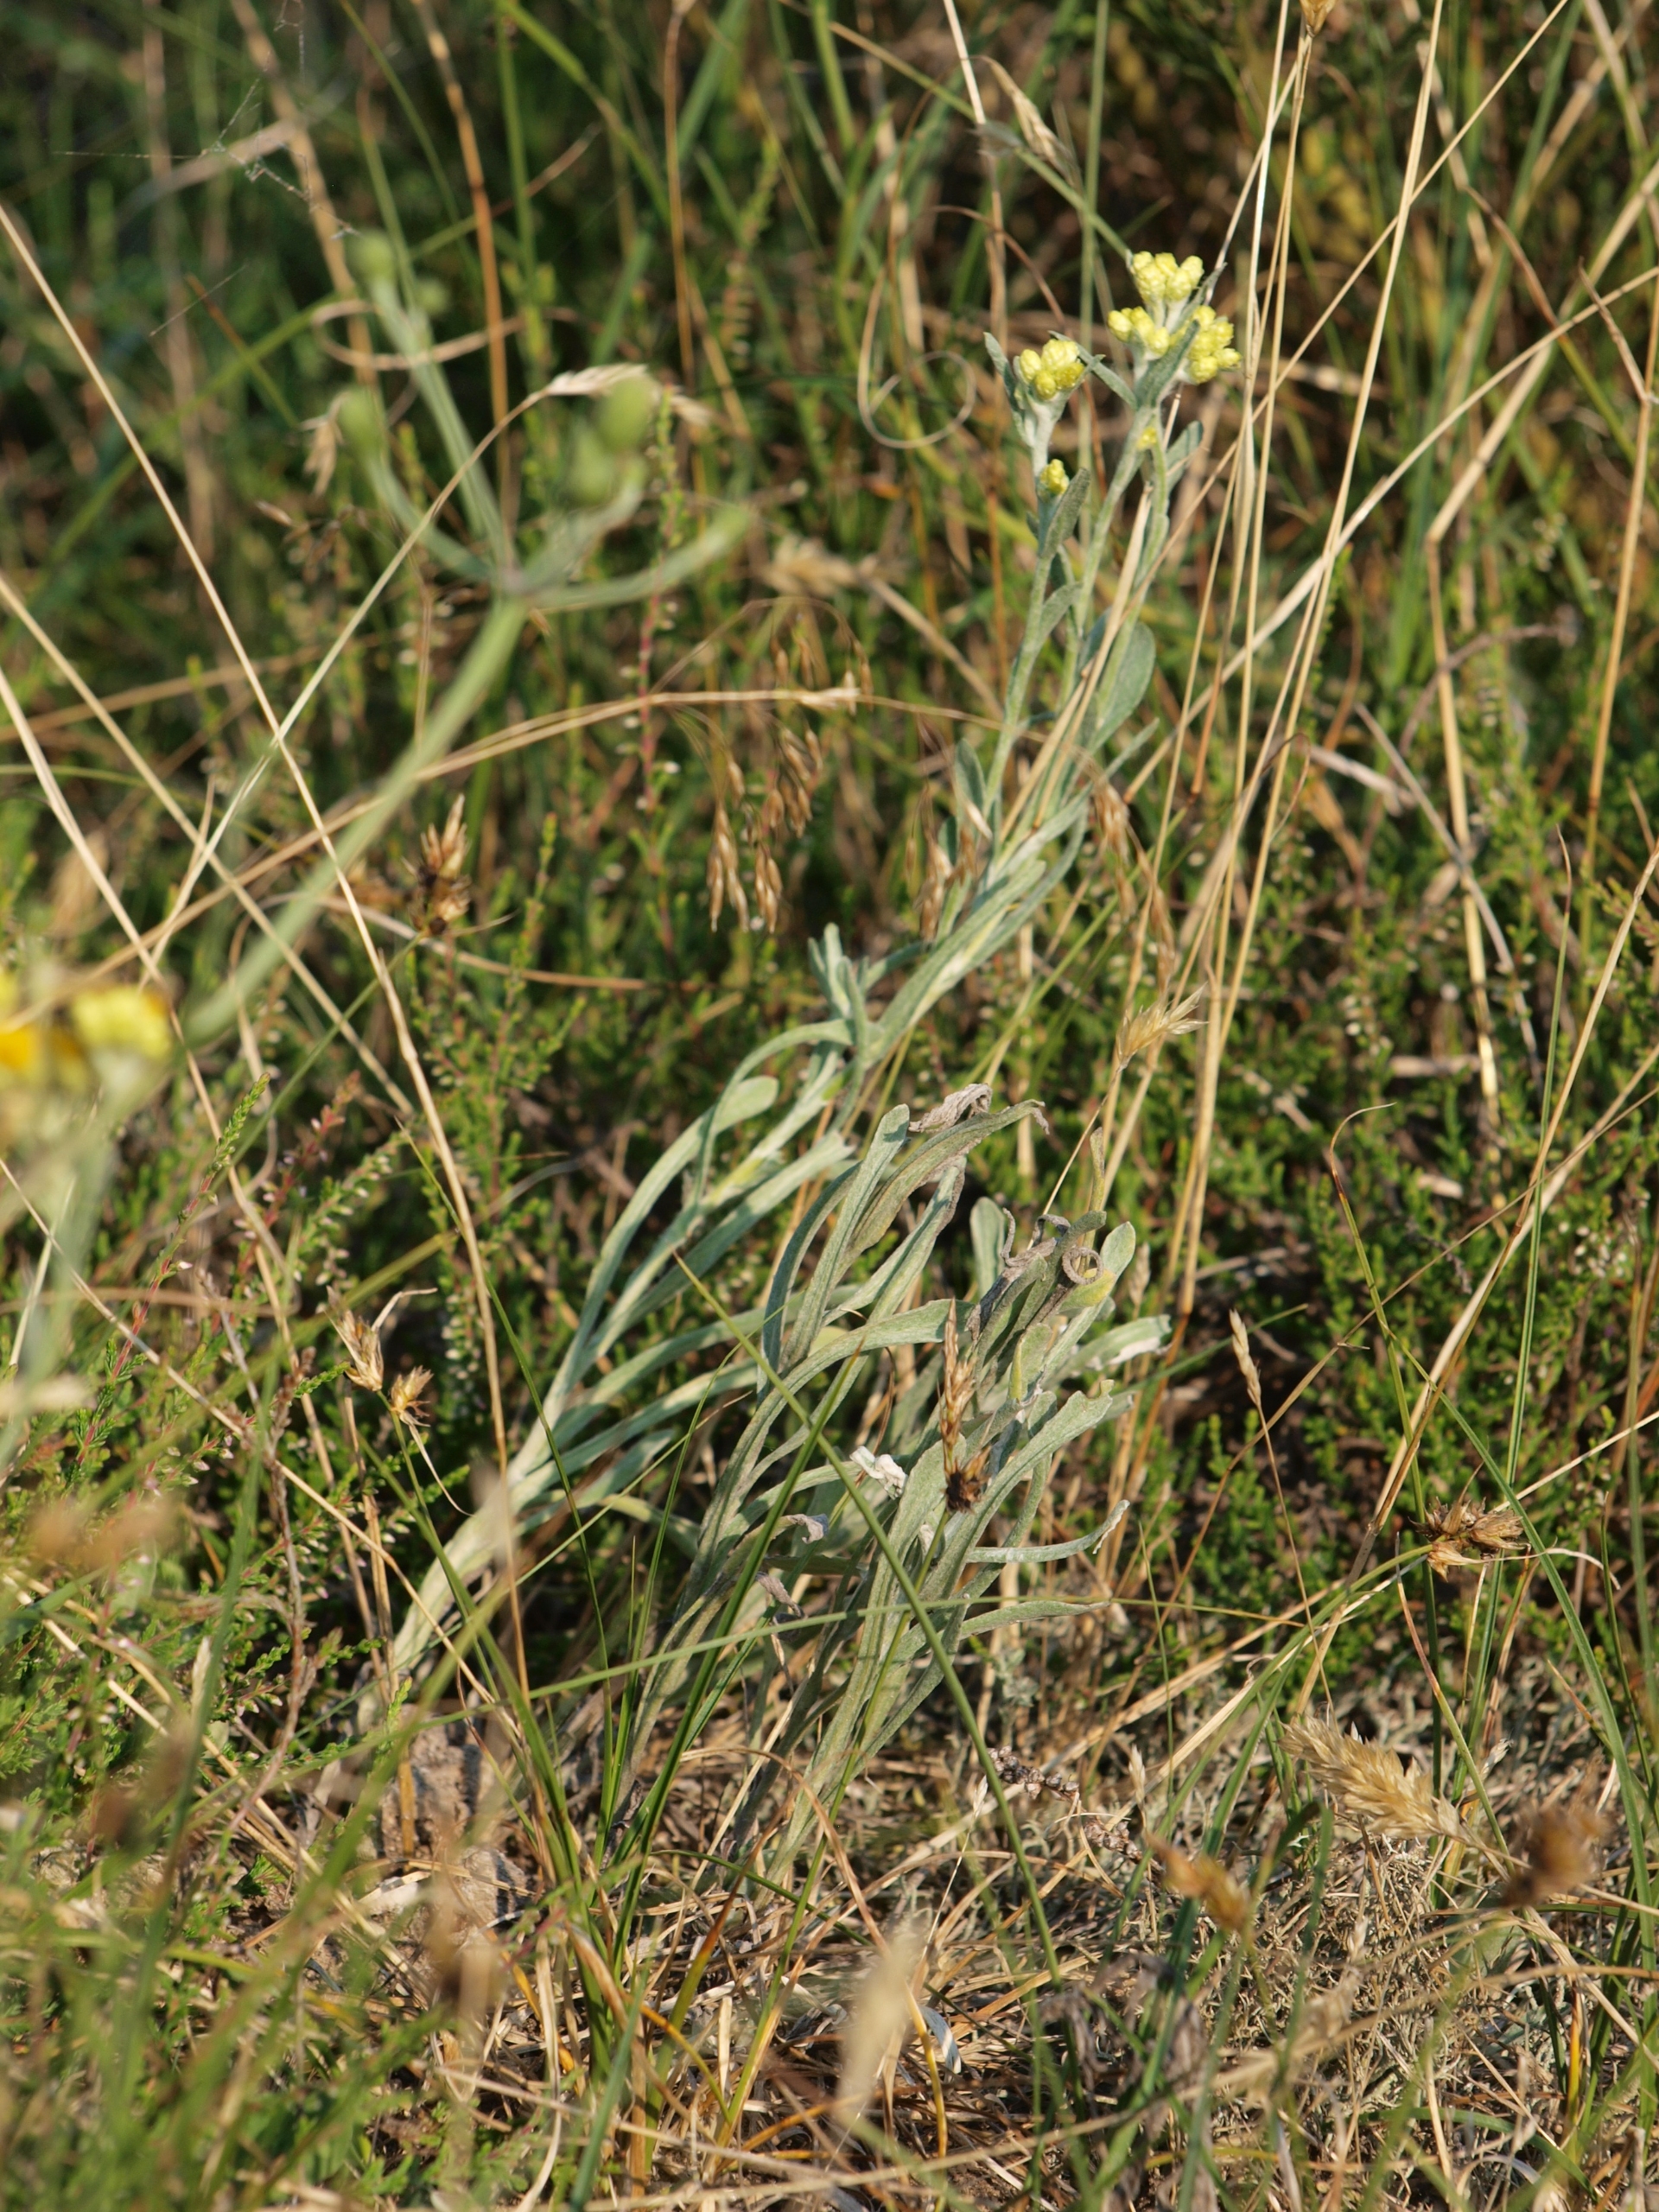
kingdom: Plantae
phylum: Tracheophyta
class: Magnoliopsida
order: Asterales
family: Asteraceae
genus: Helichrysum
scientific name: Helichrysum arenarium
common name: Gul evighedsblomst
